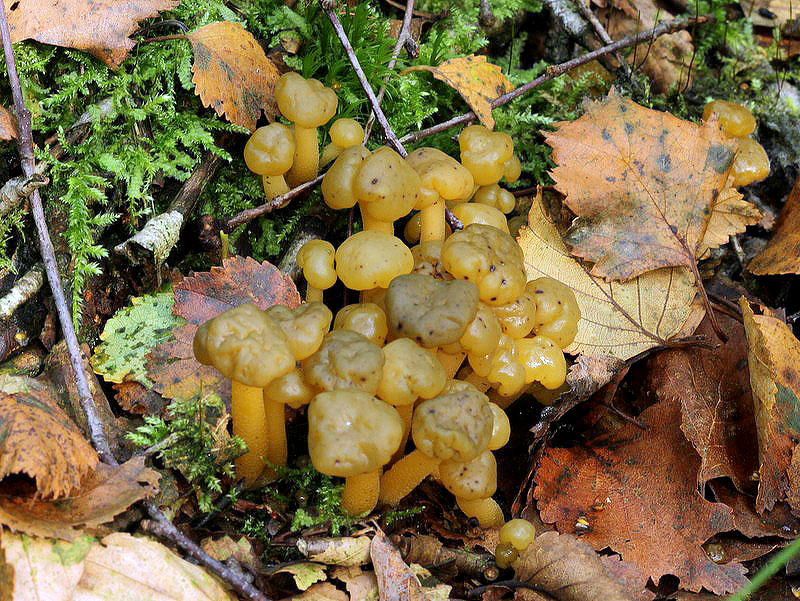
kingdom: Fungi
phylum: Ascomycota
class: Leotiomycetes
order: Leotiales
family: Leotiaceae
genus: Leotia
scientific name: Leotia lubrica
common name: ravsvamp
